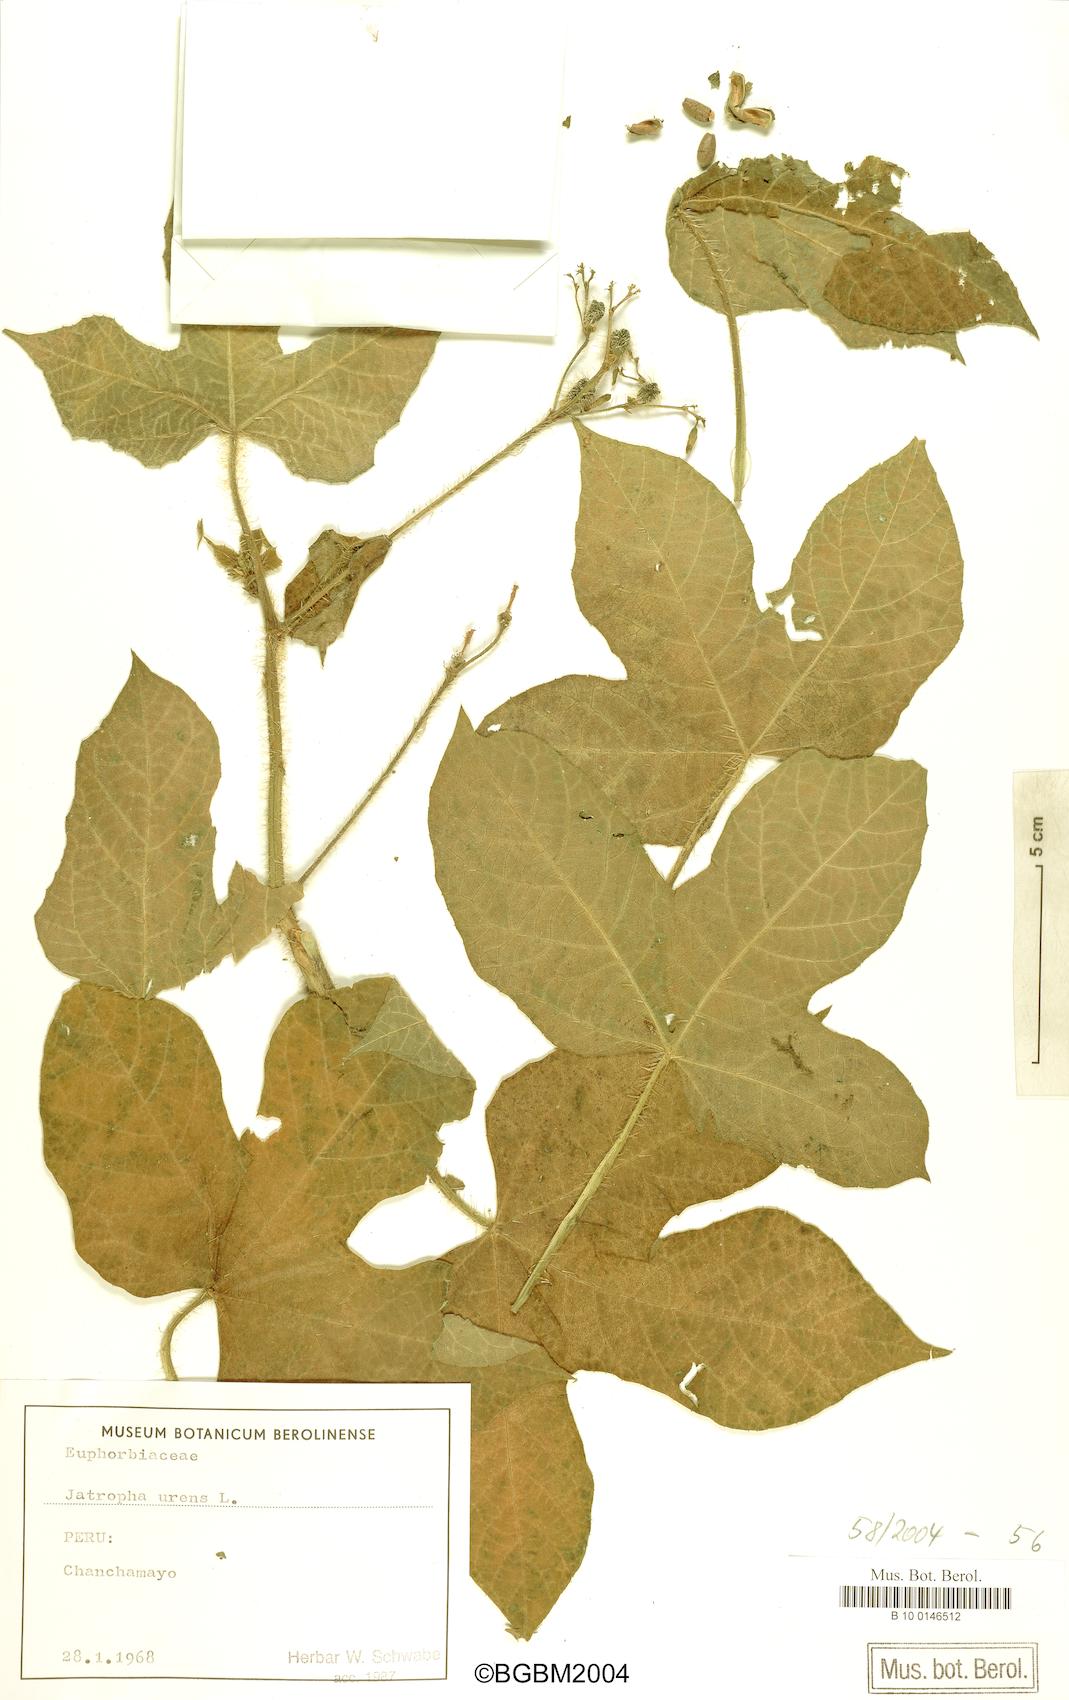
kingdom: Plantae
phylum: Tracheophyta
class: Magnoliopsida
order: Malpighiales
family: Euphorbiaceae
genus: Cnidoscolus
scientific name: Cnidoscolus urens
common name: Bull-nettle
